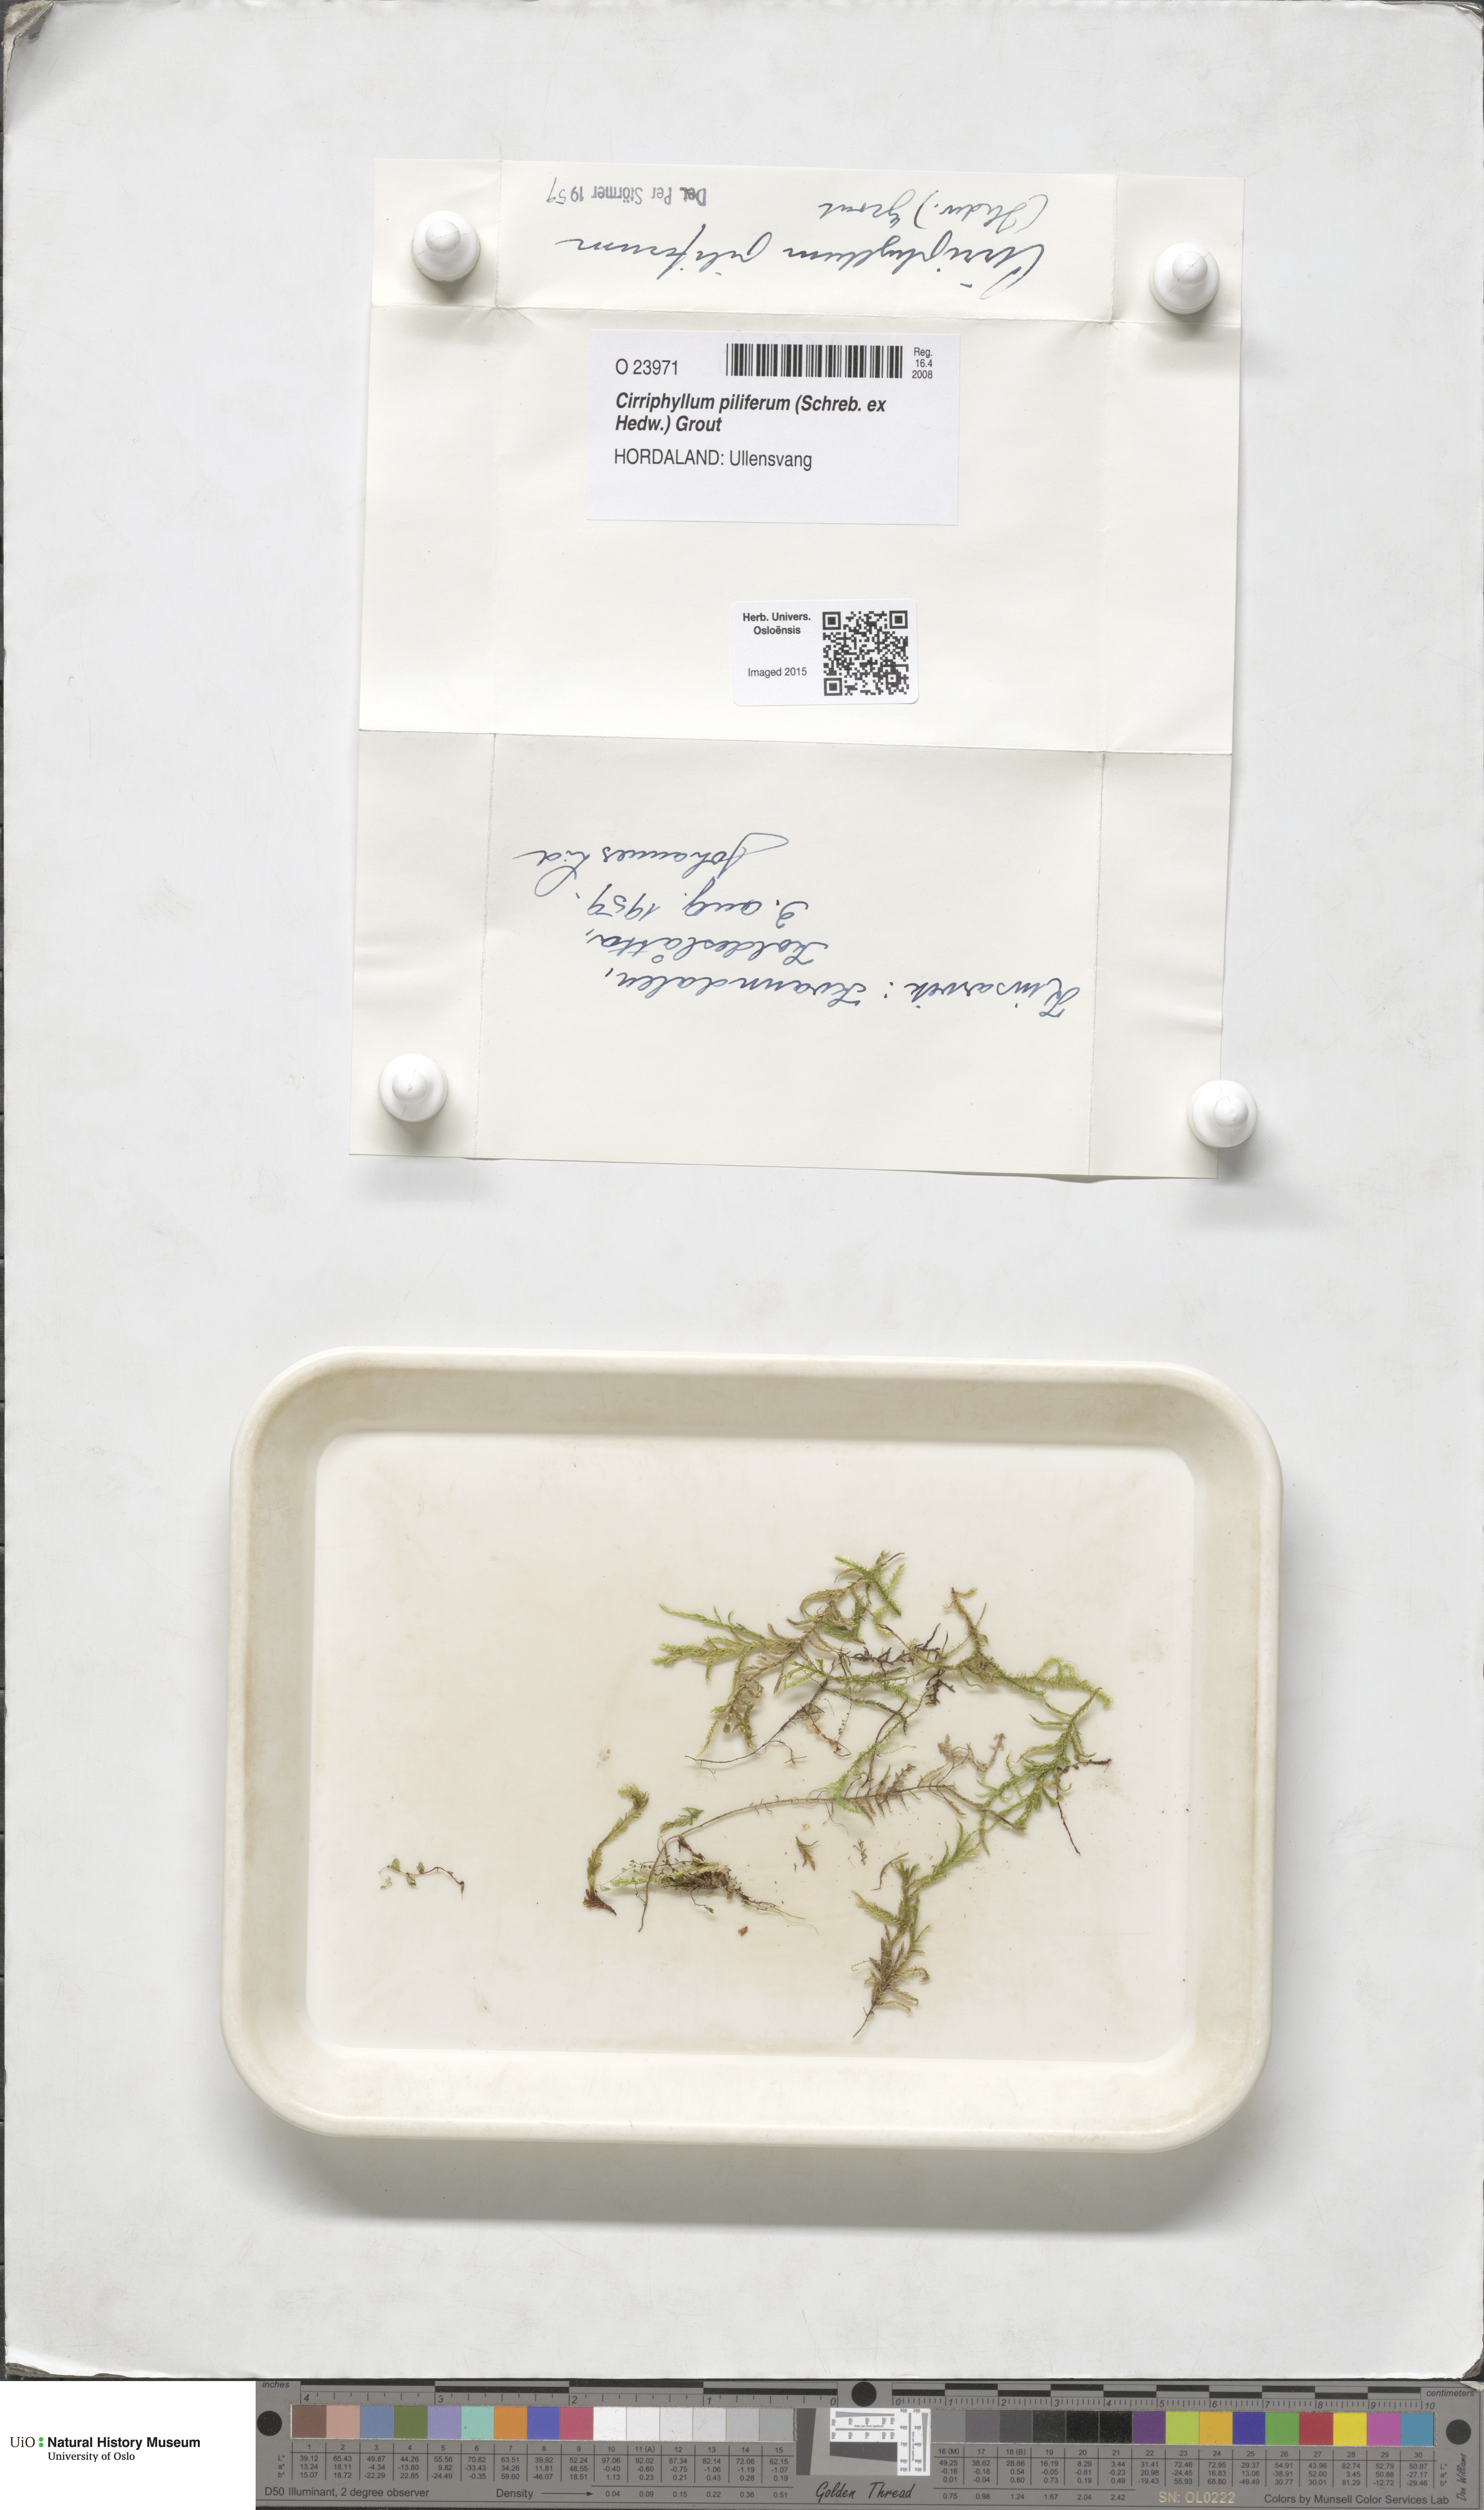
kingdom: Plantae
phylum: Bryophyta
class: Bryopsida
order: Hypnales
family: Brachytheciaceae
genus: Cirriphyllum
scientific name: Cirriphyllum piliferum
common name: Hair-pointed moss
